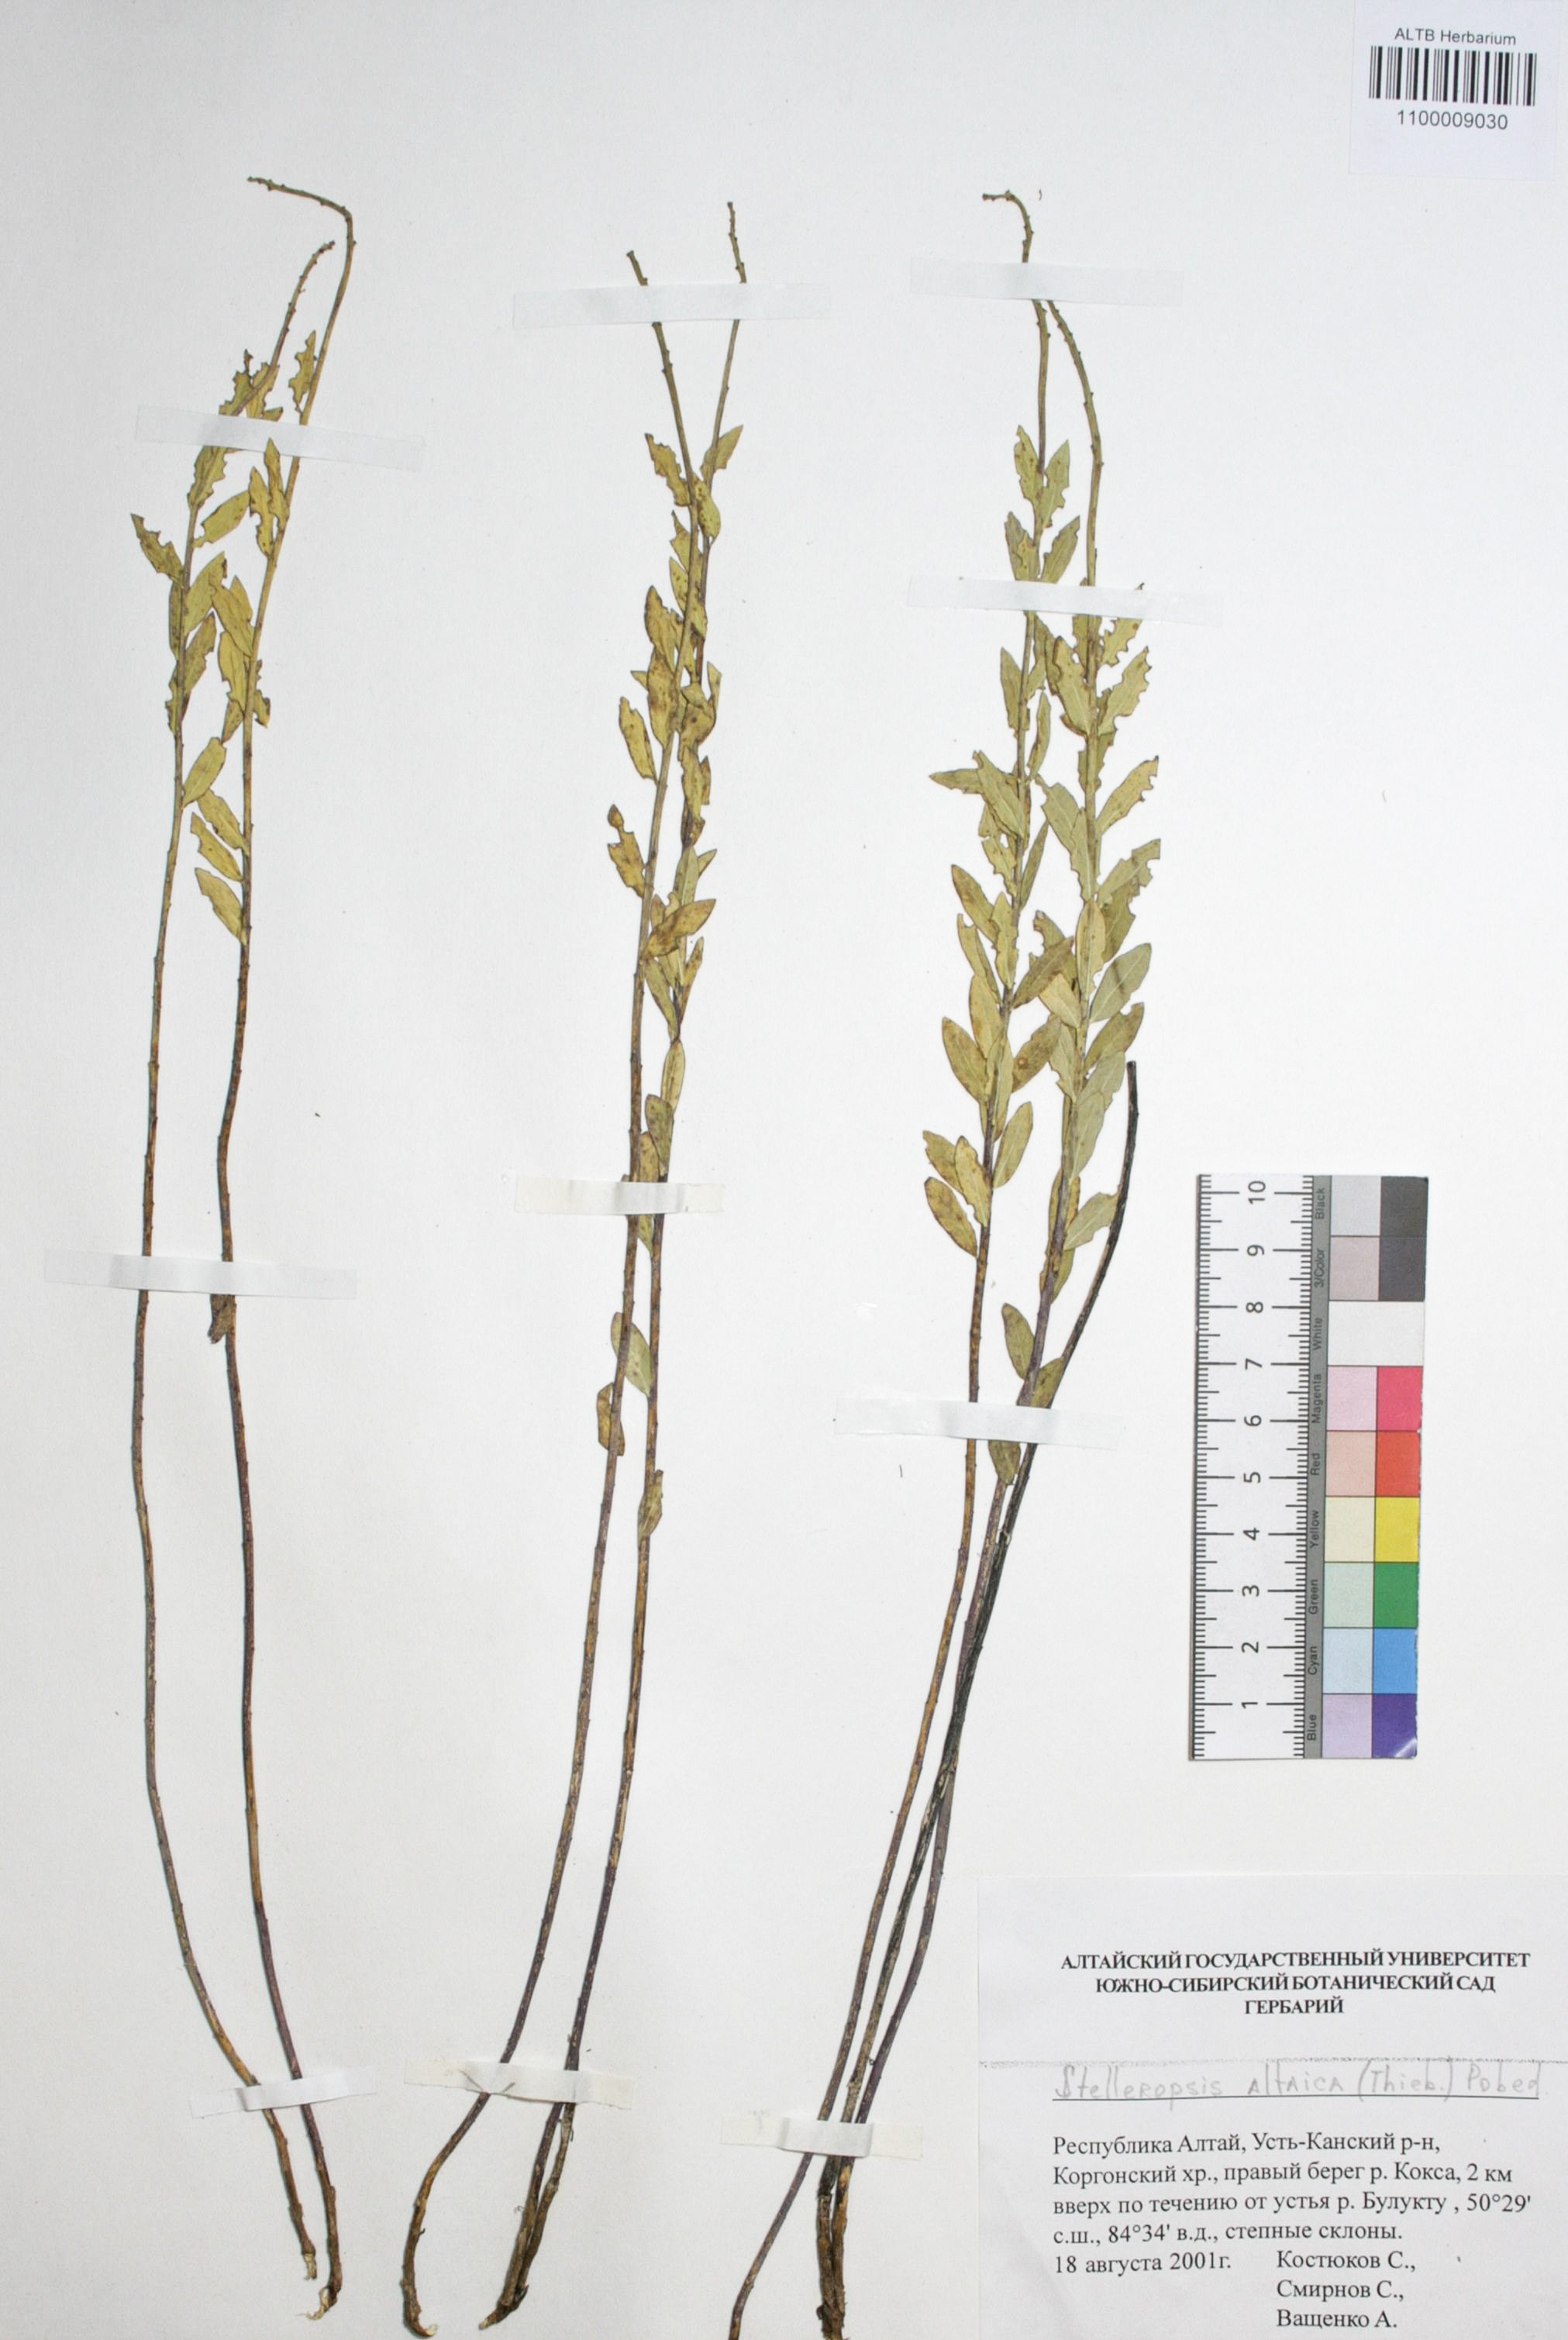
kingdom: Plantae
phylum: Tracheophyta
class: Magnoliopsida
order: Malvales
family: Thymelaeaceae
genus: Diarthron
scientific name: Diarthron altaicum
